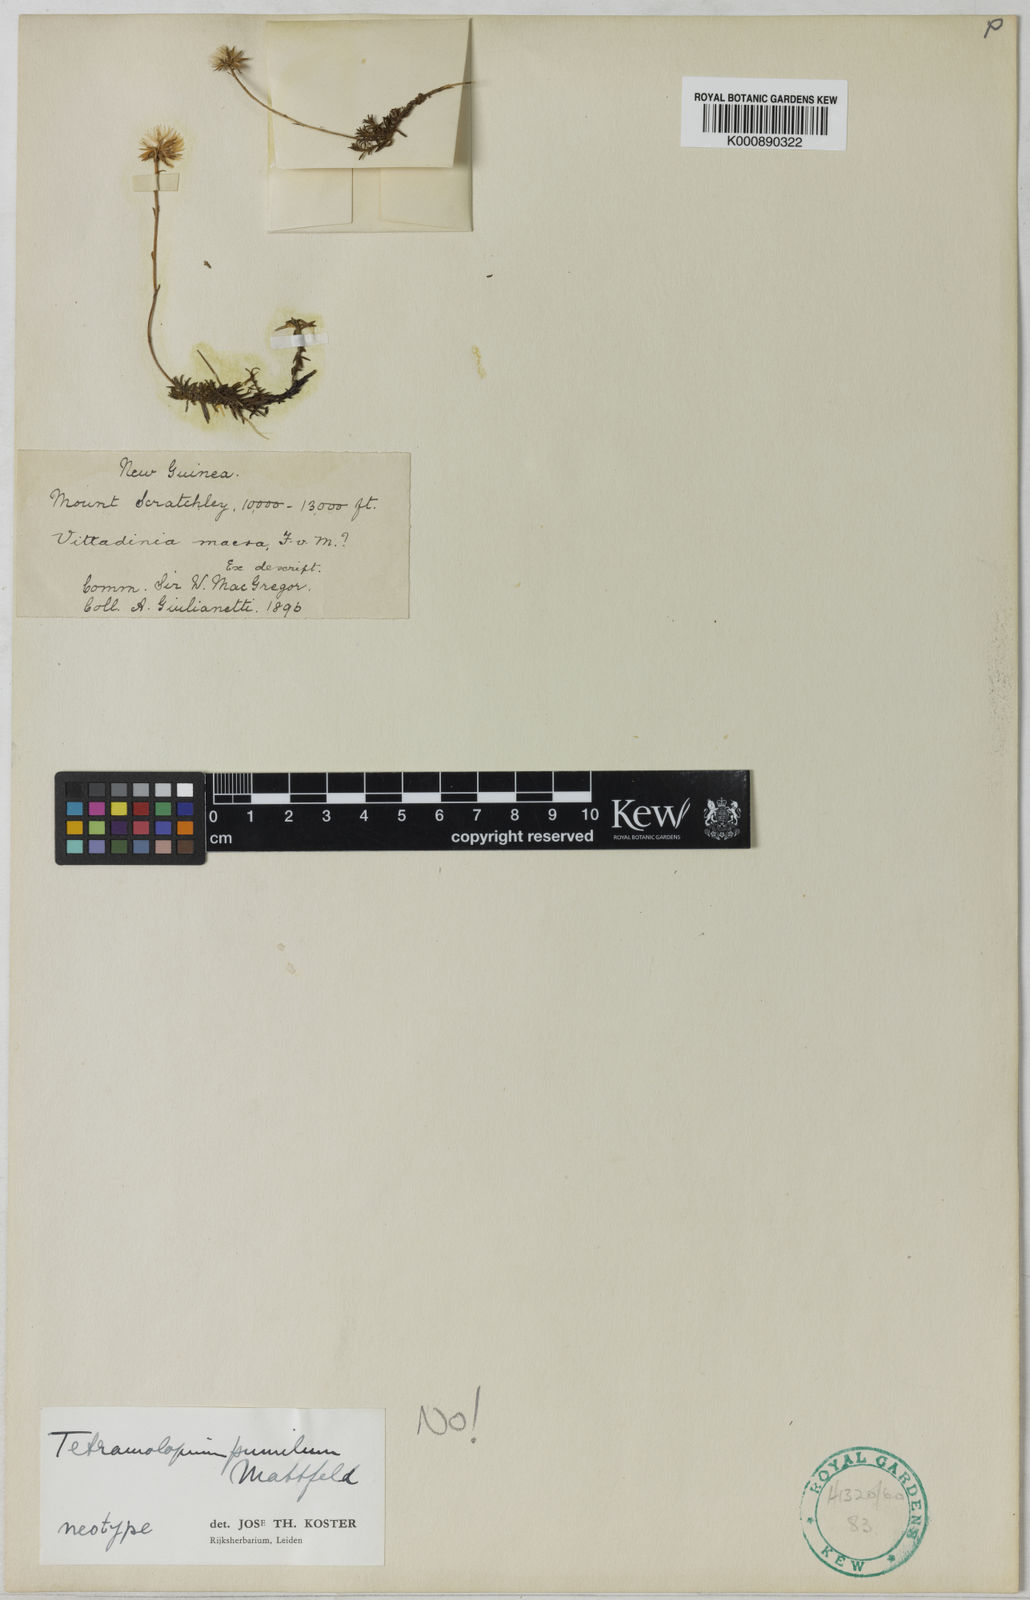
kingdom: Plantae
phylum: Tracheophyta
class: Magnoliopsida
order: Asterales
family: Asteraceae
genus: Tetramolopium
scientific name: Tetramolopium pumilum
